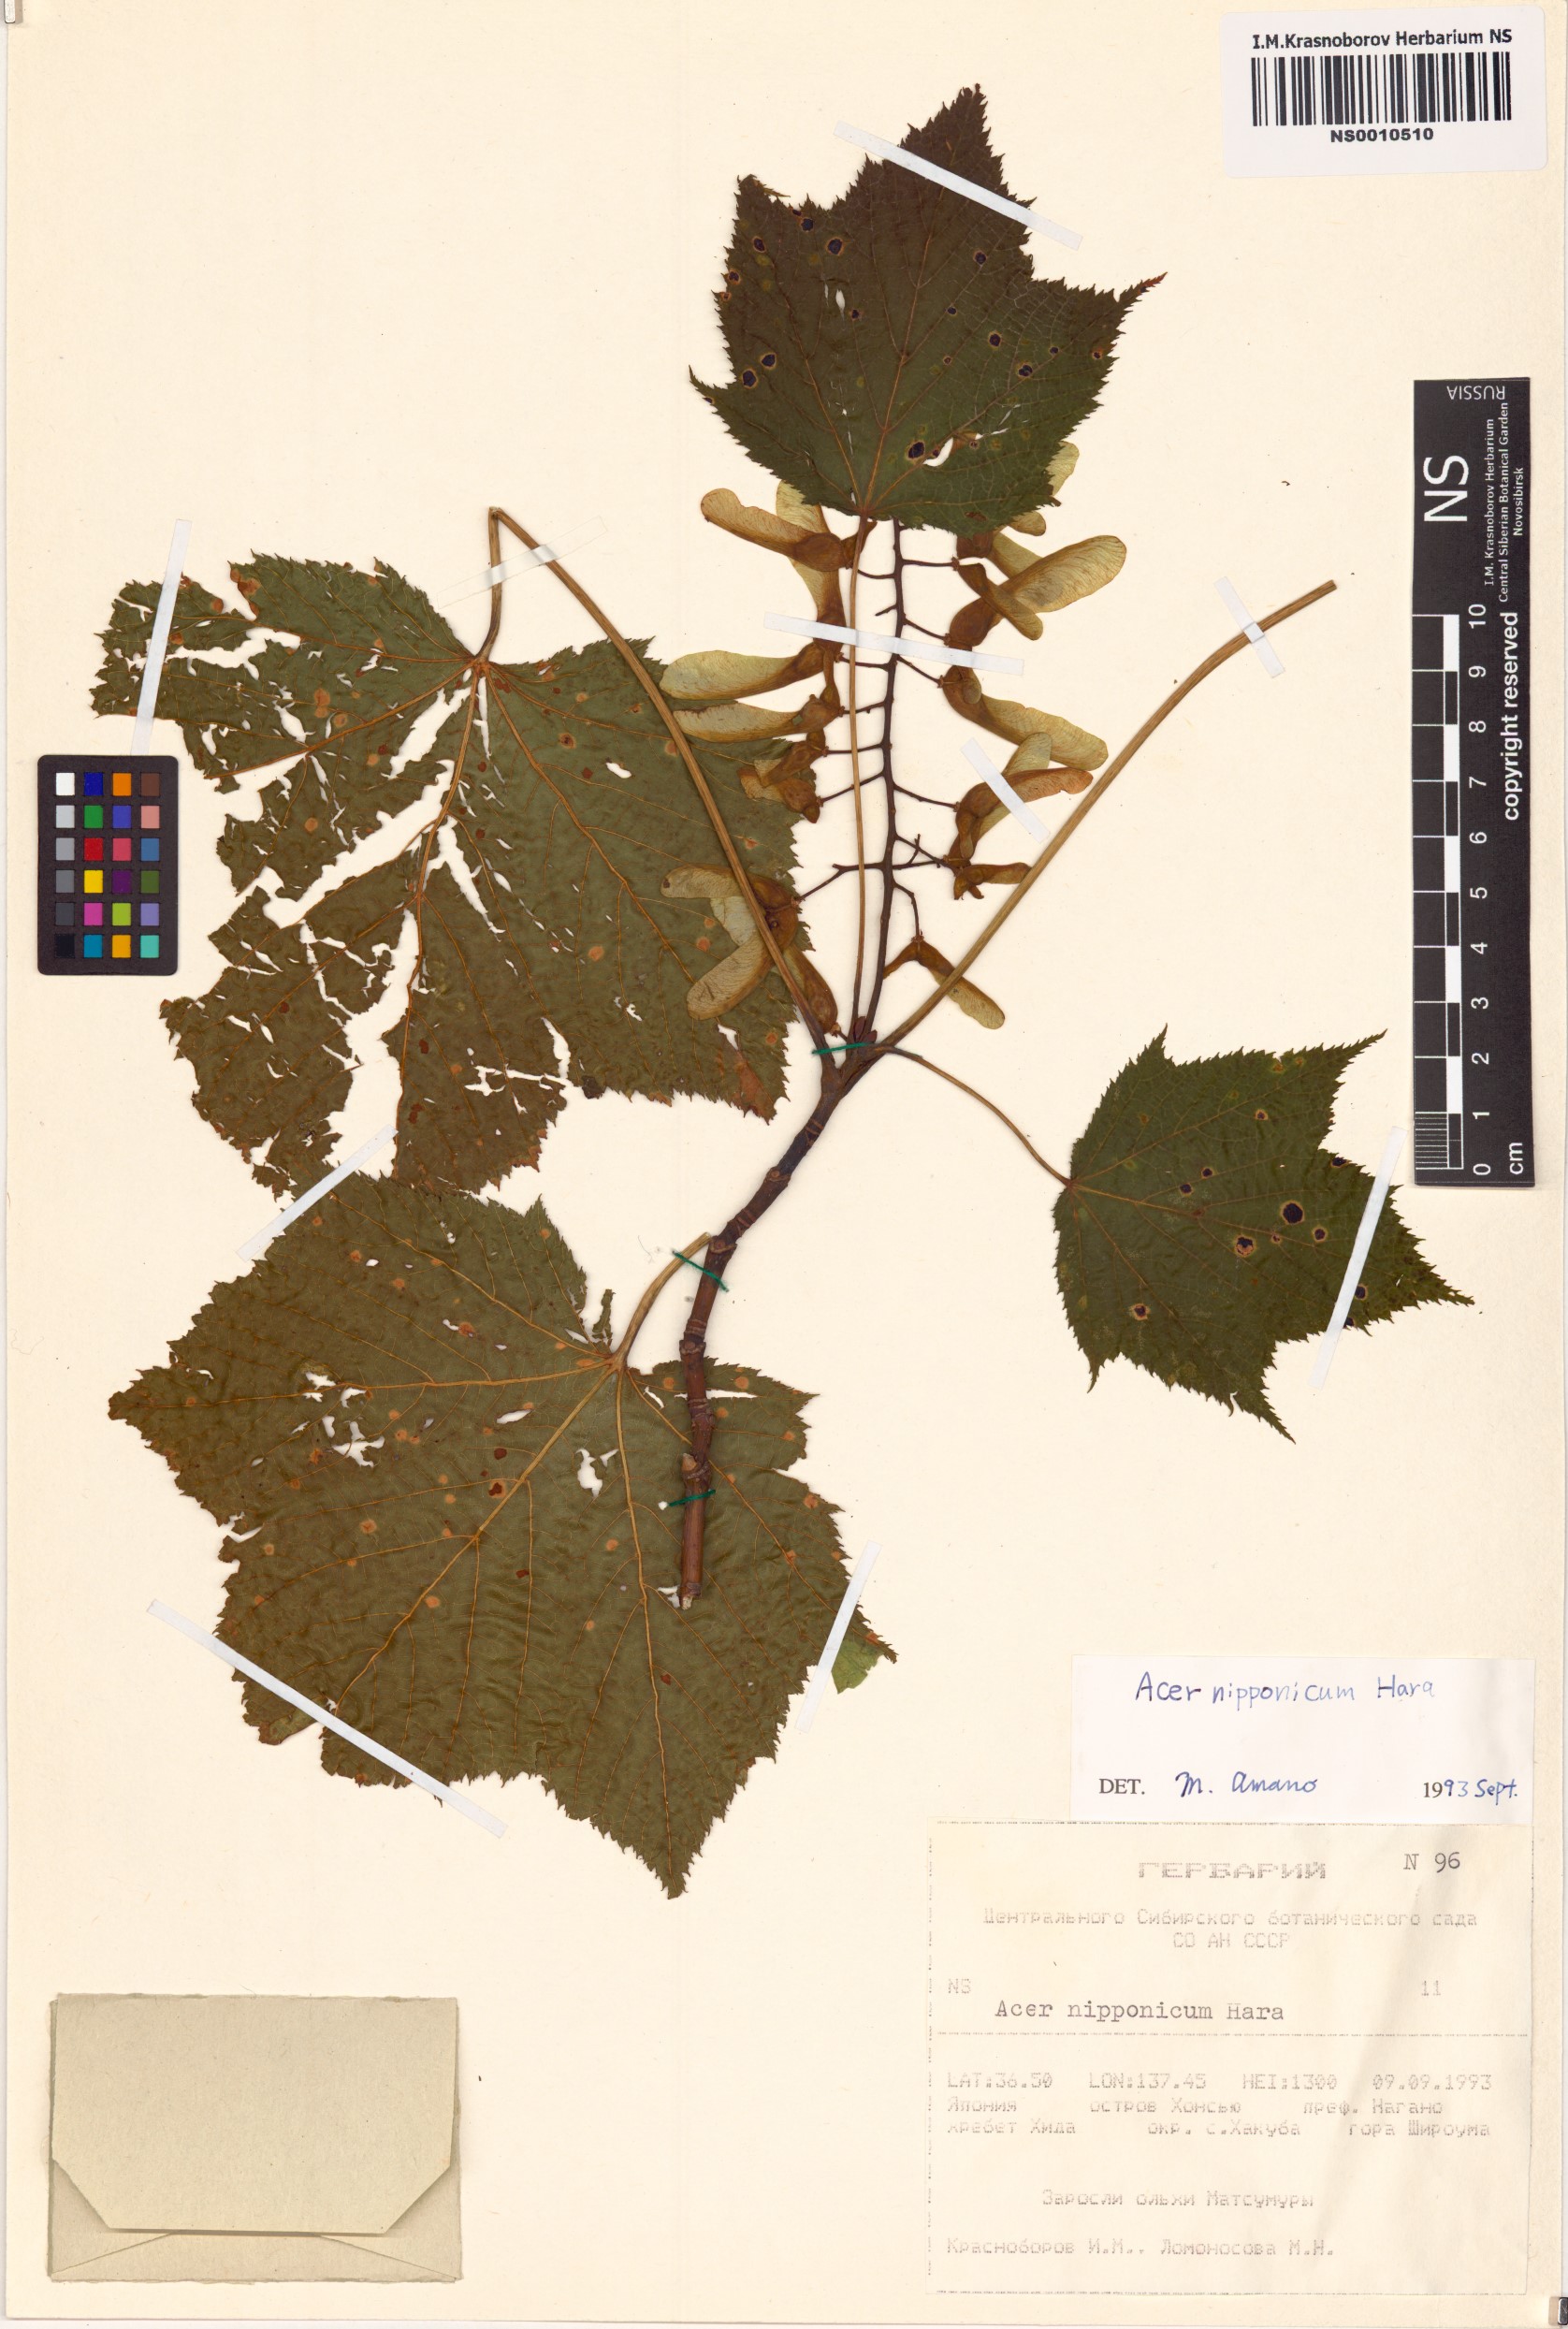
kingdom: Plantae
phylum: Tracheophyta
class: Magnoliopsida
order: Sapindales
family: Sapindaceae
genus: Acer
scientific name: Acer nipponicum
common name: Nippon maple
